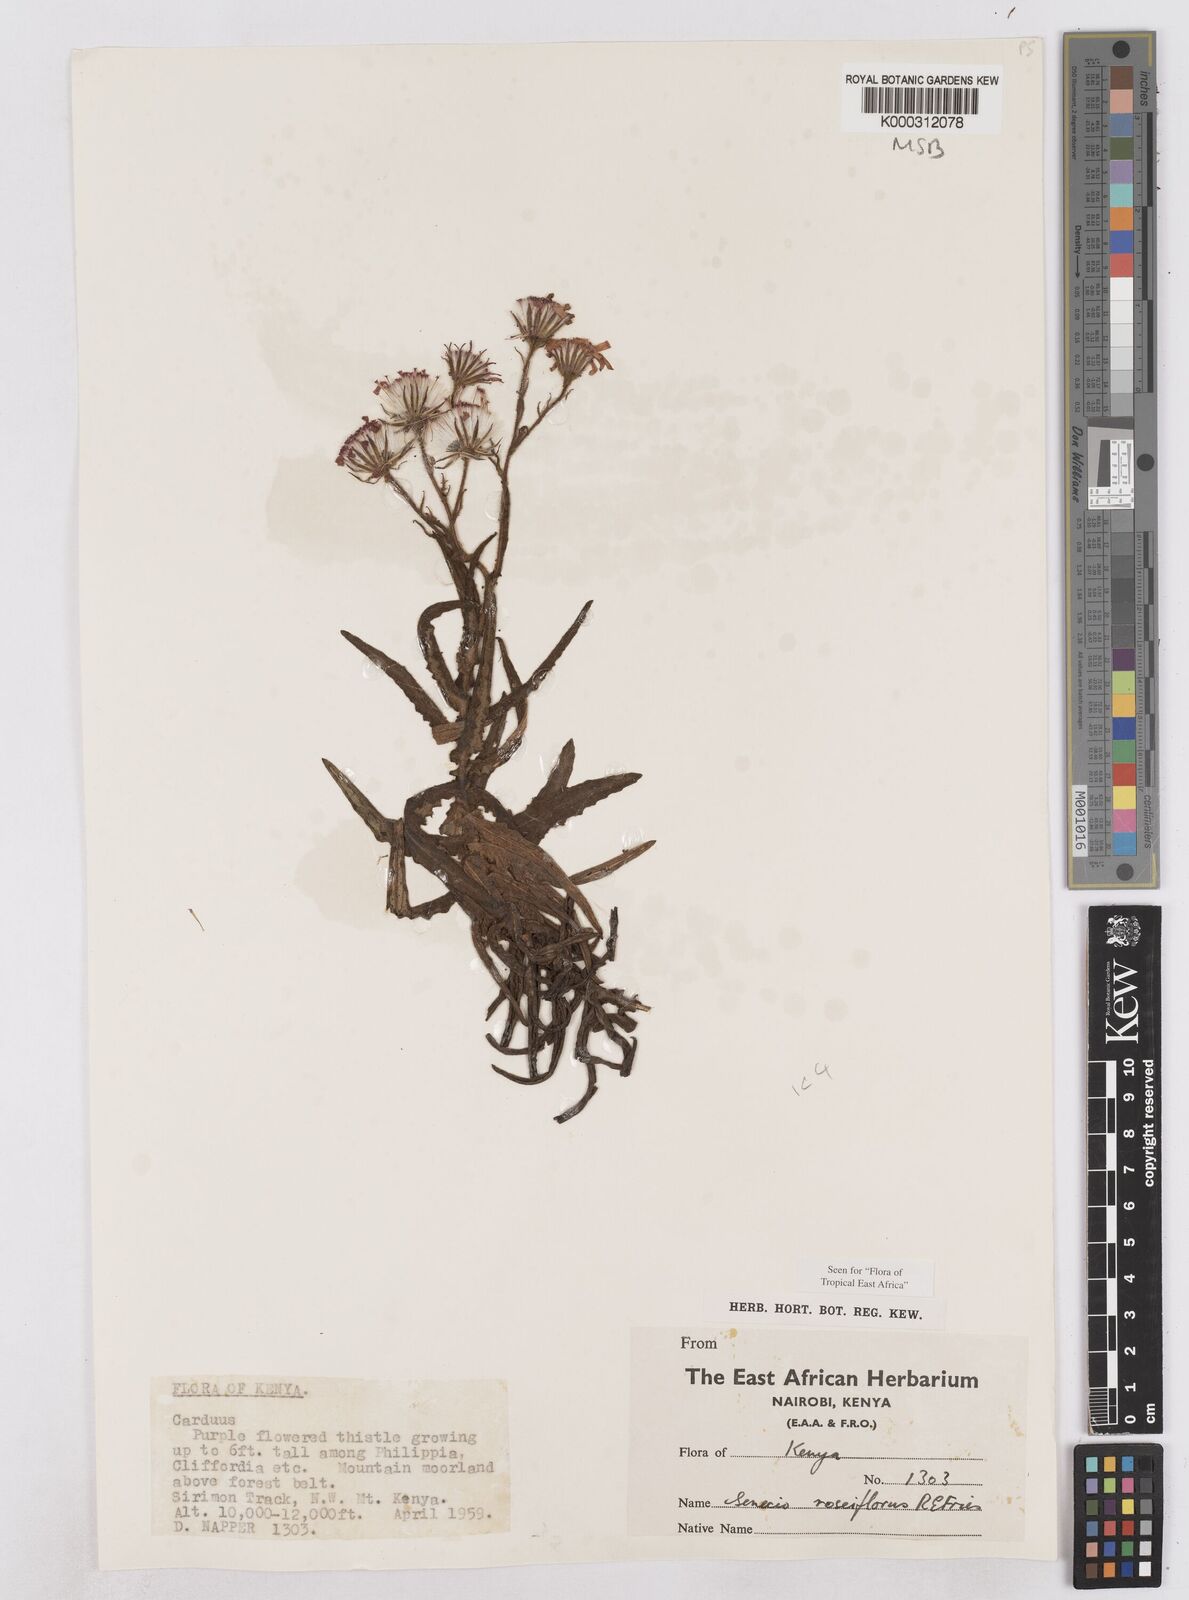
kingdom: Plantae
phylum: Tracheophyta
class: Magnoliopsida
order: Asterales
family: Asteraceae
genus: Senecio
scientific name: Senecio roseiflorus
